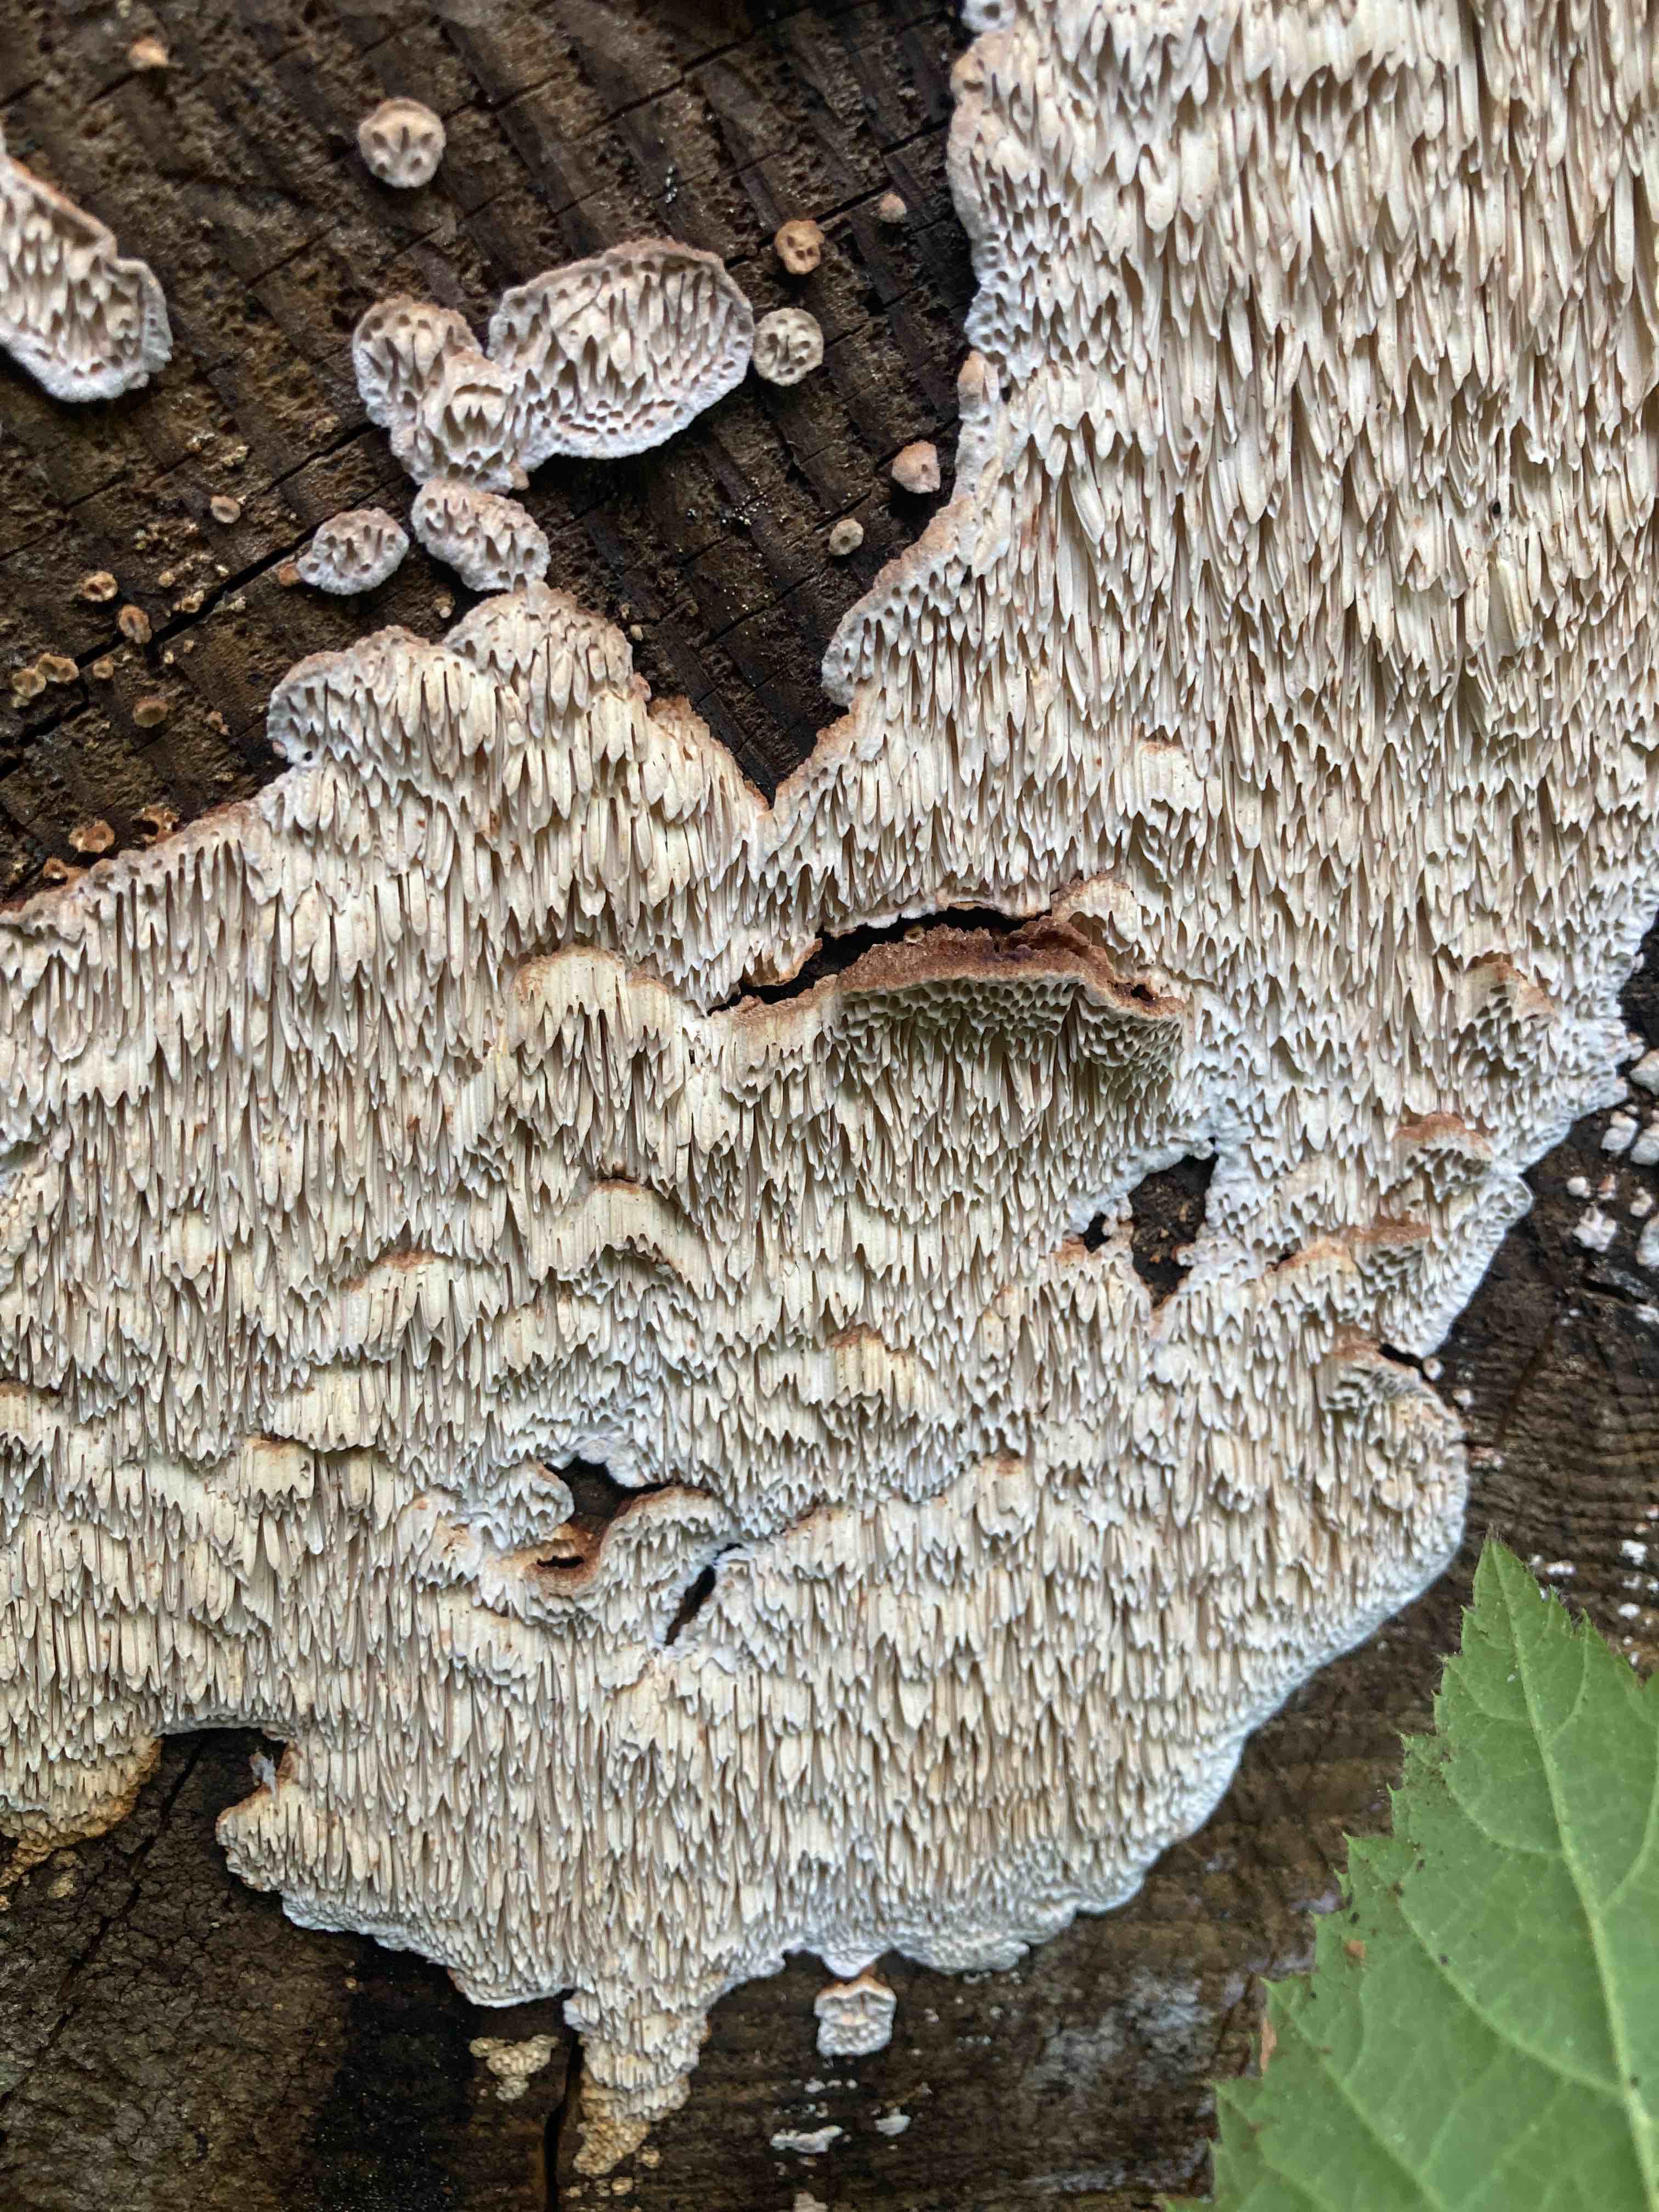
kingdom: Fungi
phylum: Basidiomycota
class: Agaricomycetes
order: Polyporales
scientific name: Polyporales
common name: poresvampordenen
